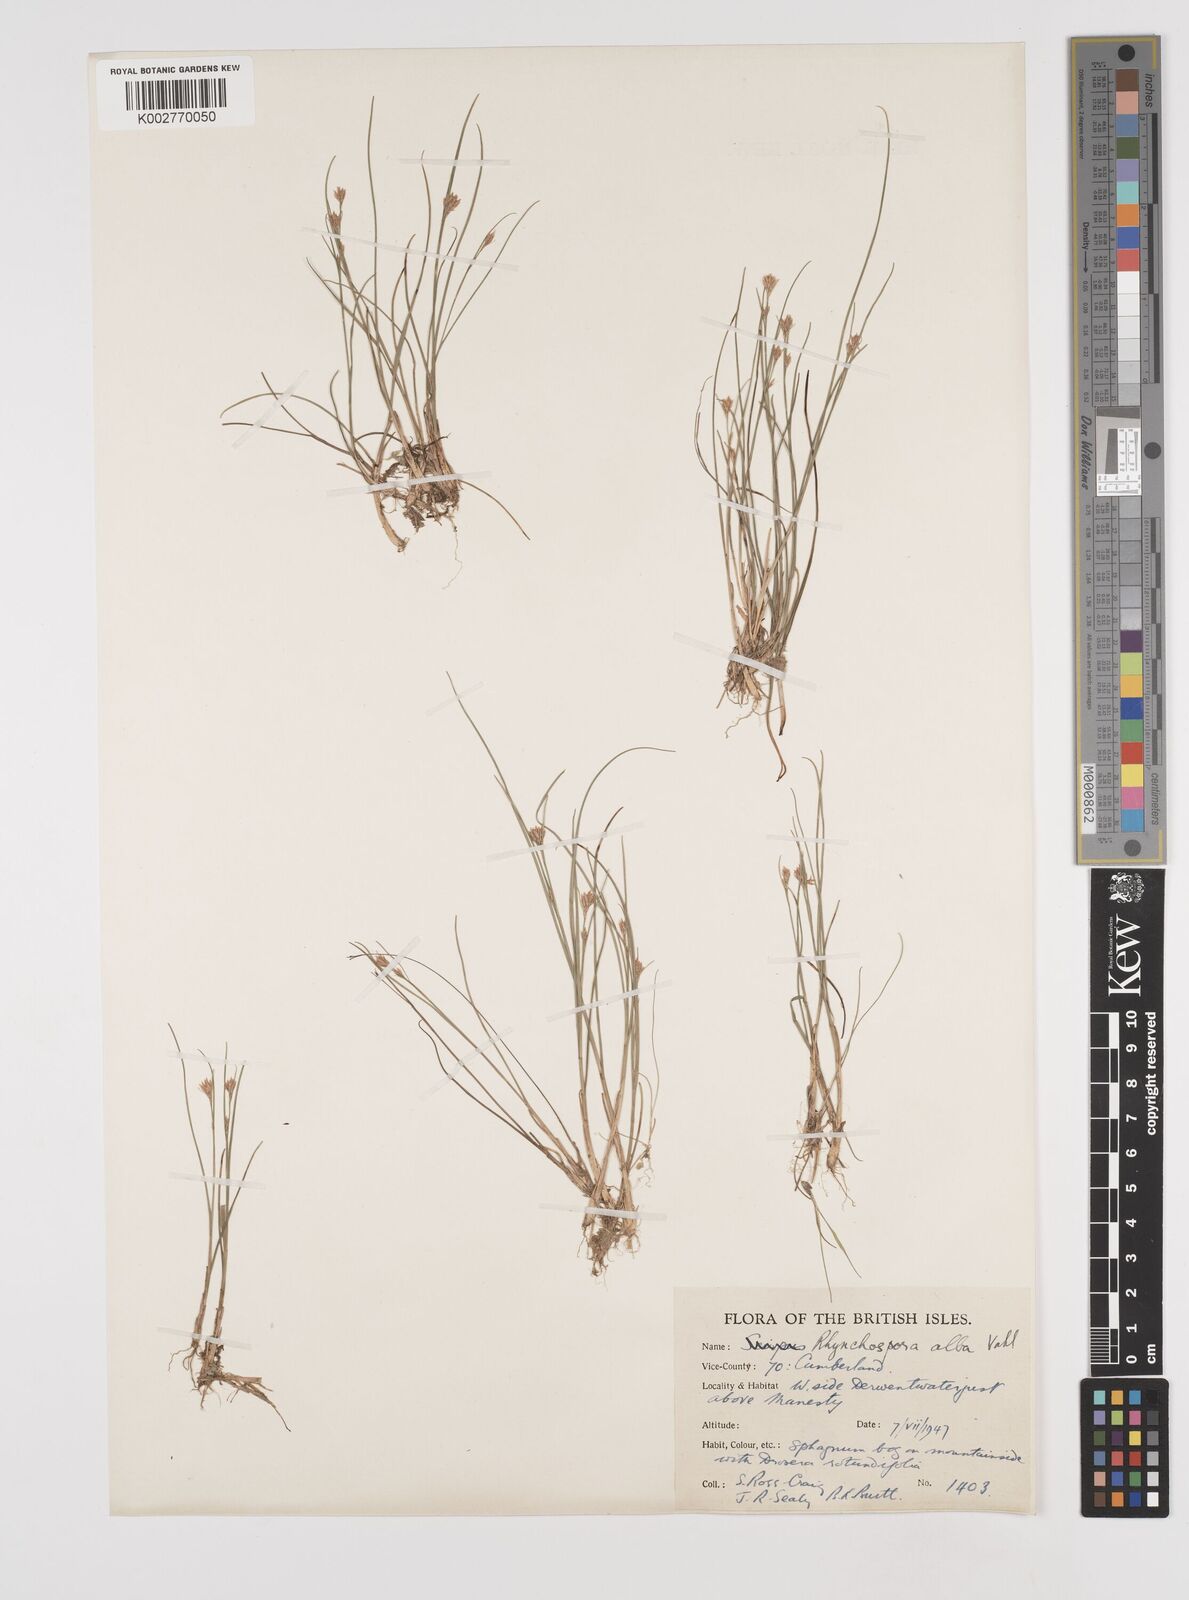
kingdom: Plantae
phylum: Tracheophyta
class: Liliopsida
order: Poales
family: Cyperaceae
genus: Rhynchospora
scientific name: Rhynchospora alba
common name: White beak-sedge
